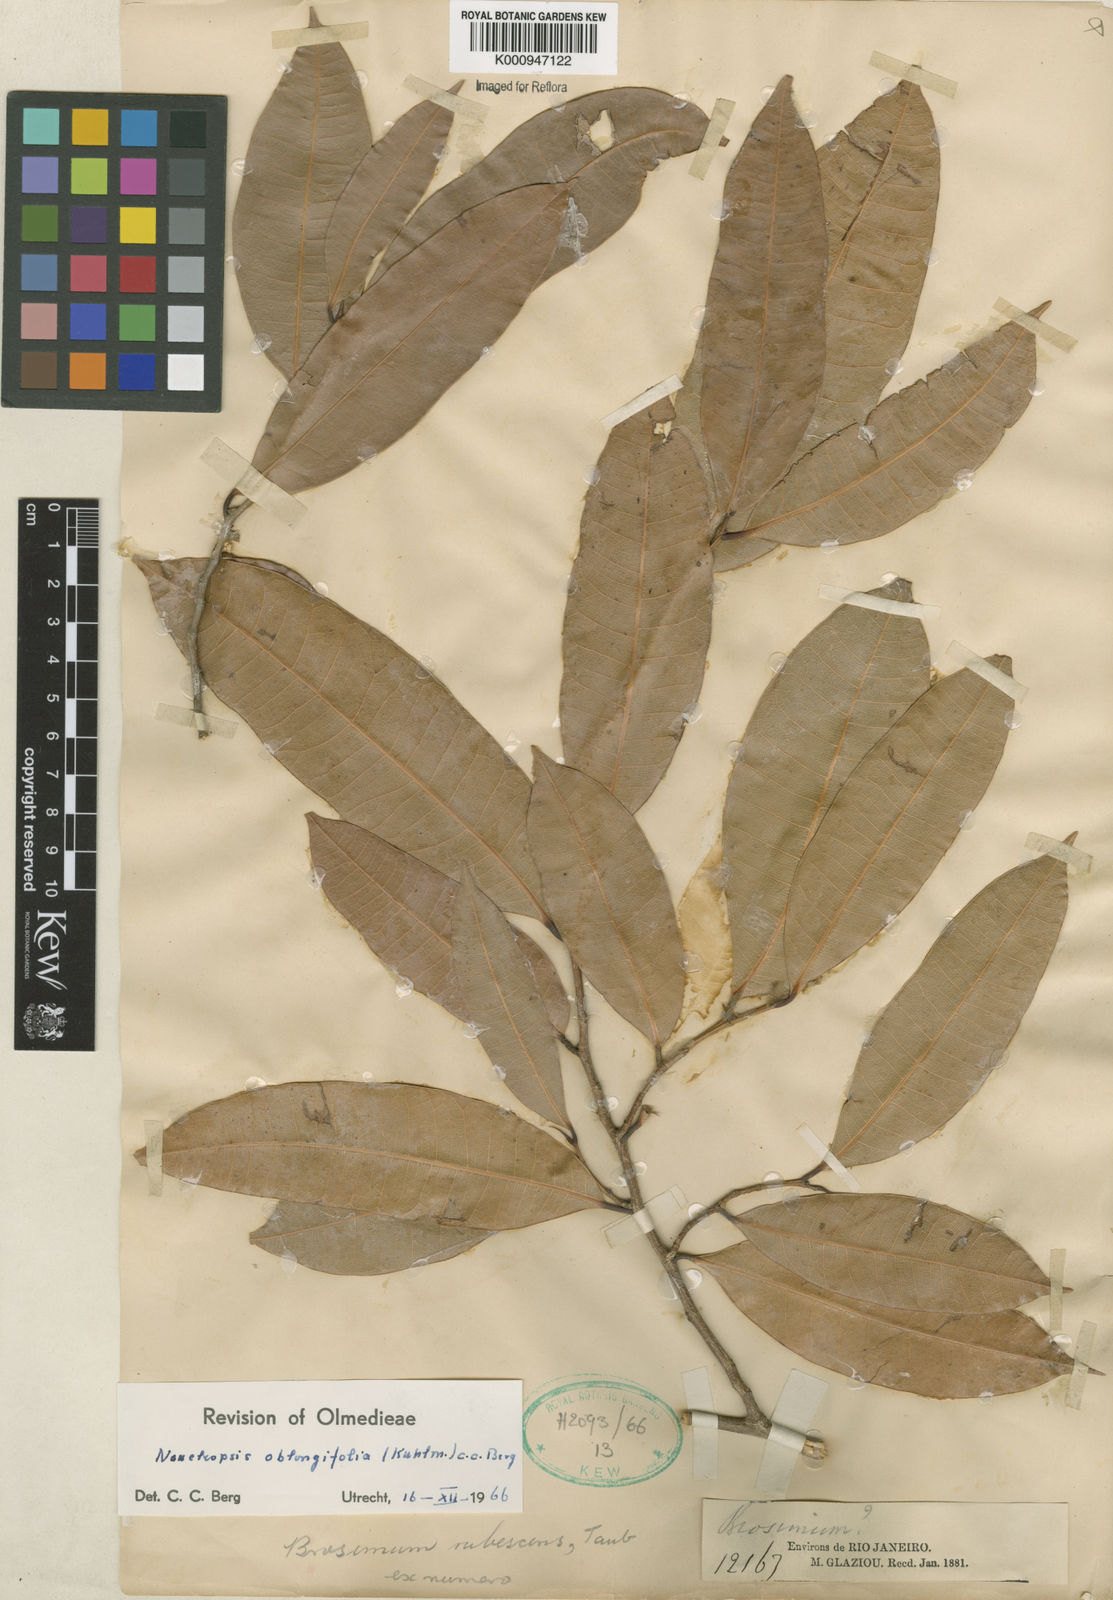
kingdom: Plantae
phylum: Tracheophyta
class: Magnoliopsida
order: Rosales
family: Moraceae
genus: Naucleopsis
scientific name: Naucleopsis oblongifolia
